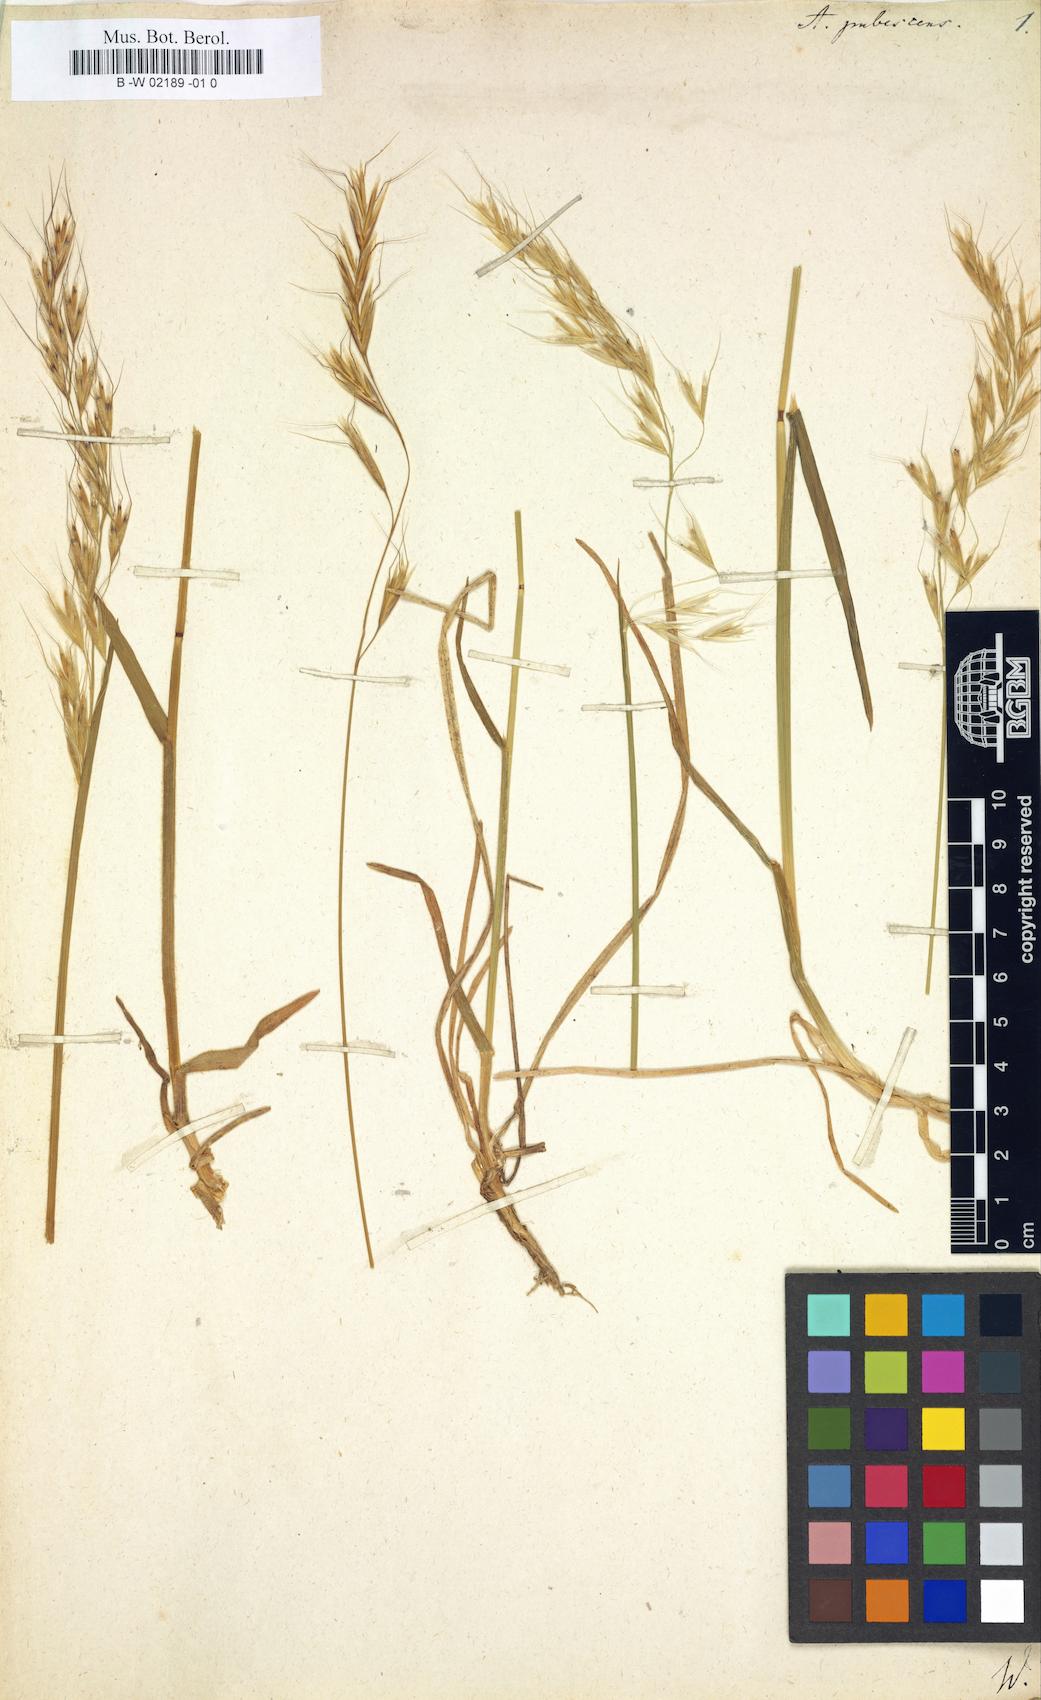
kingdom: Plantae
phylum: Tracheophyta
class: Liliopsida
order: Poales
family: Poaceae
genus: Avenula
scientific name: Avenula pubescens
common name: Downy alpine oatgrass
